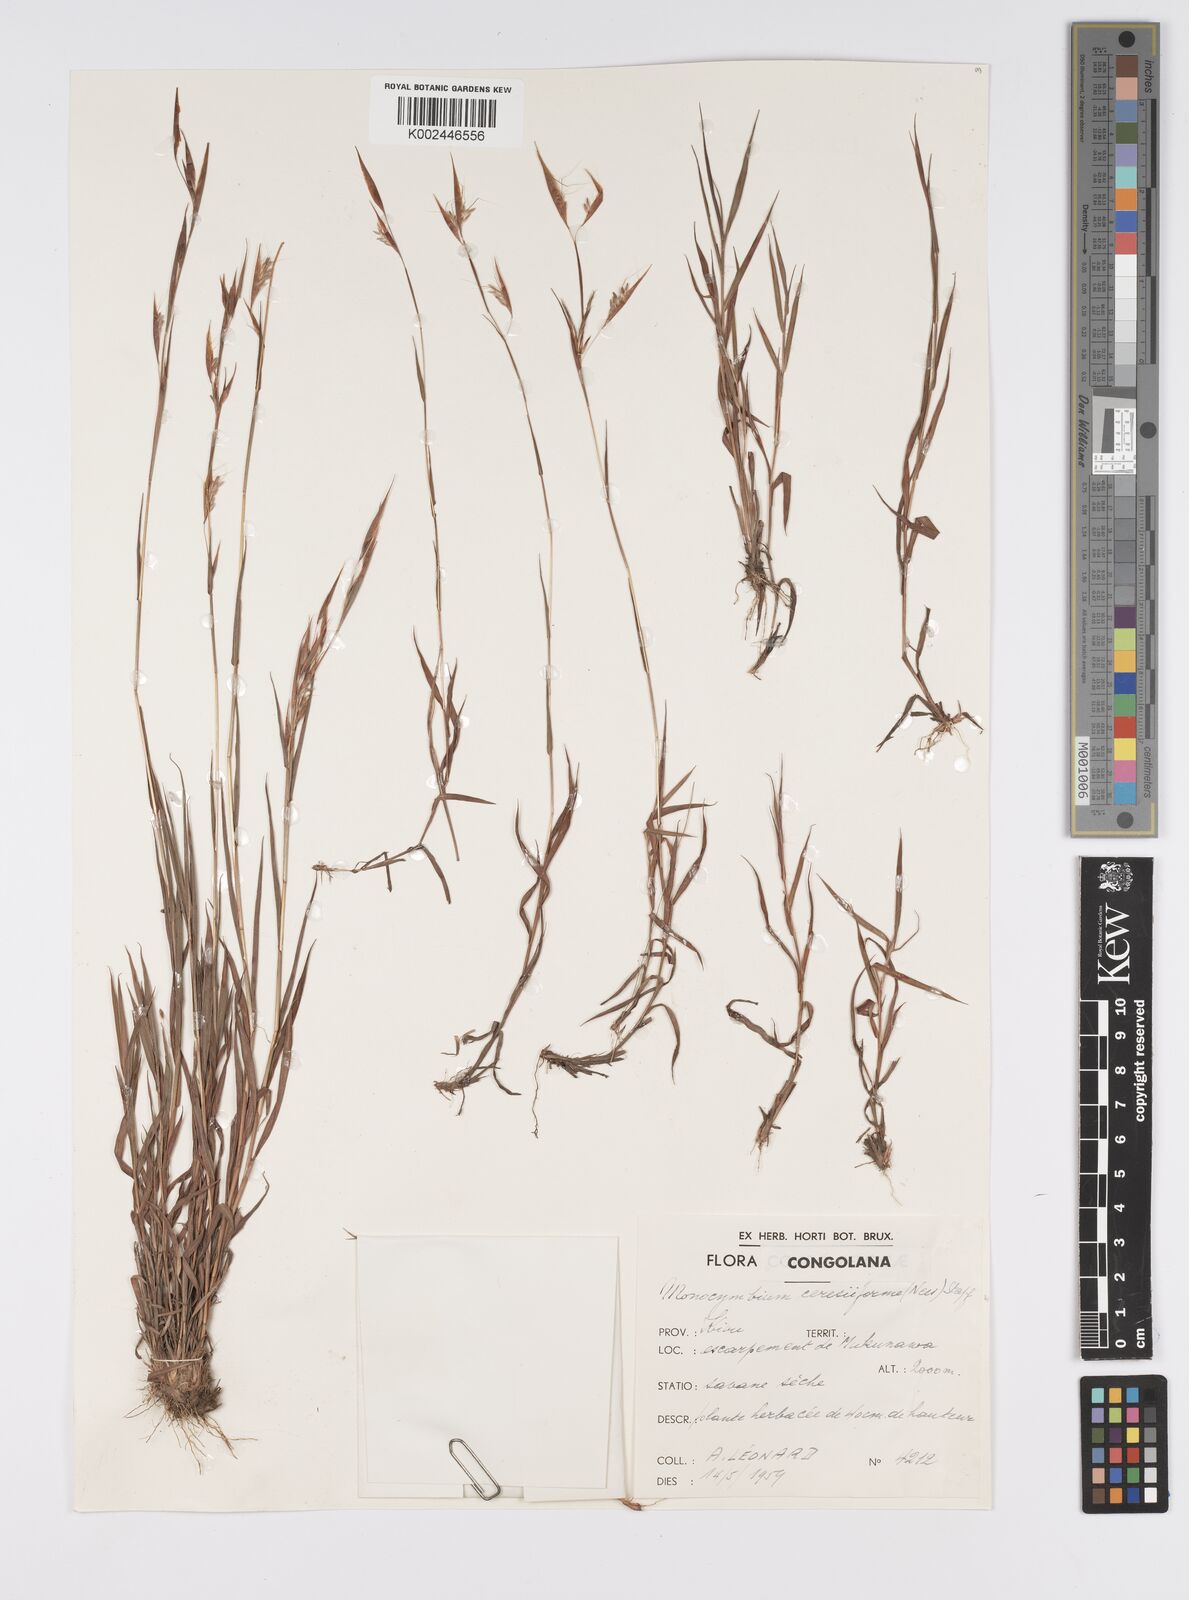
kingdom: Plantae
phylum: Tracheophyta
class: Liliopsida
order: Poales
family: Poaceae
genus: Monocymbium
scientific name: Monocymbium ceresiiforme
